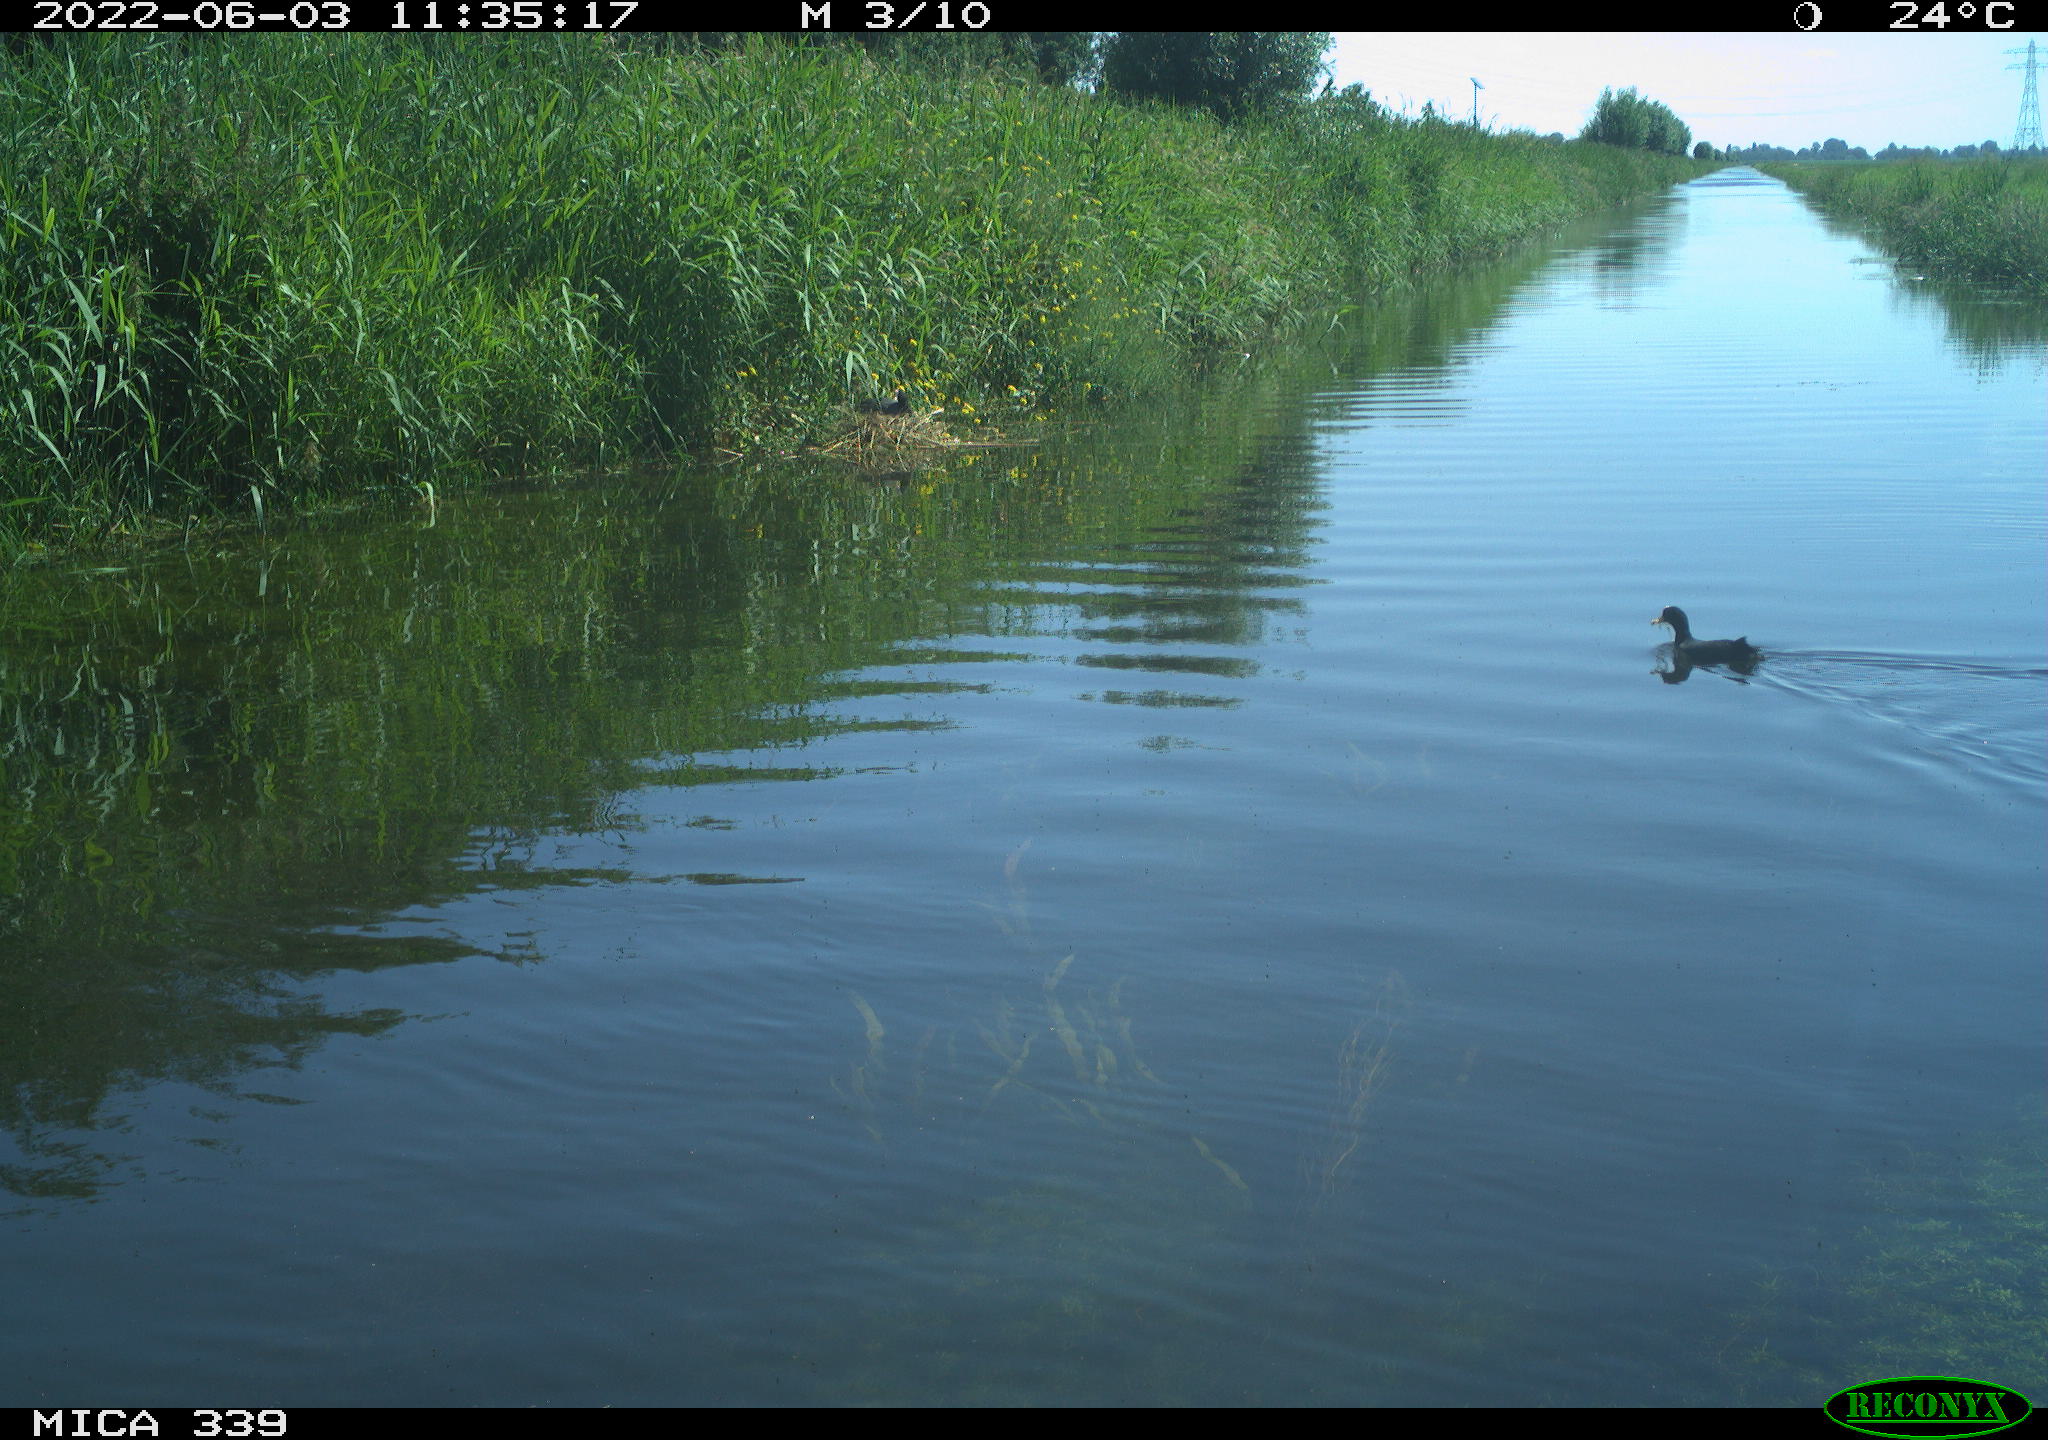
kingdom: Animalia
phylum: Chordata
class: Aves
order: Gruiformes
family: Rallidae
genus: Fulica
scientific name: Fulica atra
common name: Eurasian coot
